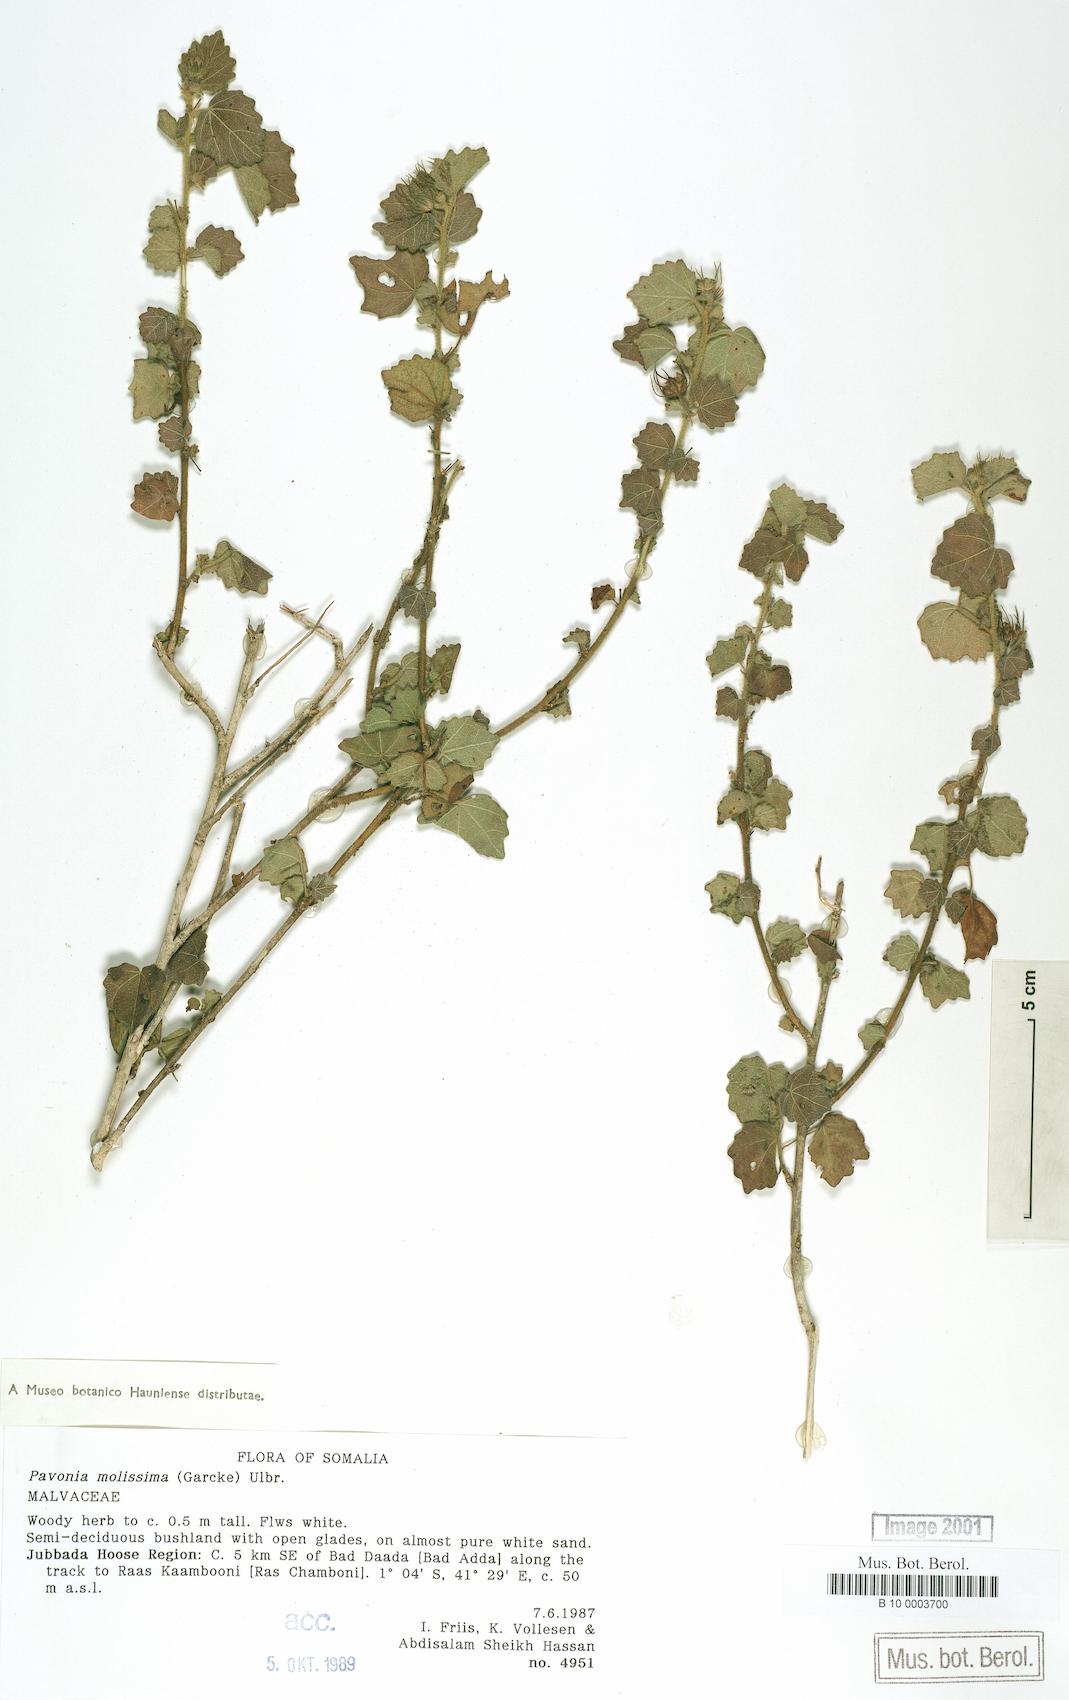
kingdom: Plantae
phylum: Tracheophyta
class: Magnoliopsida
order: Malvales
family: Malvaceae
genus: Pavonia
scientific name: Pavonia mollissima
